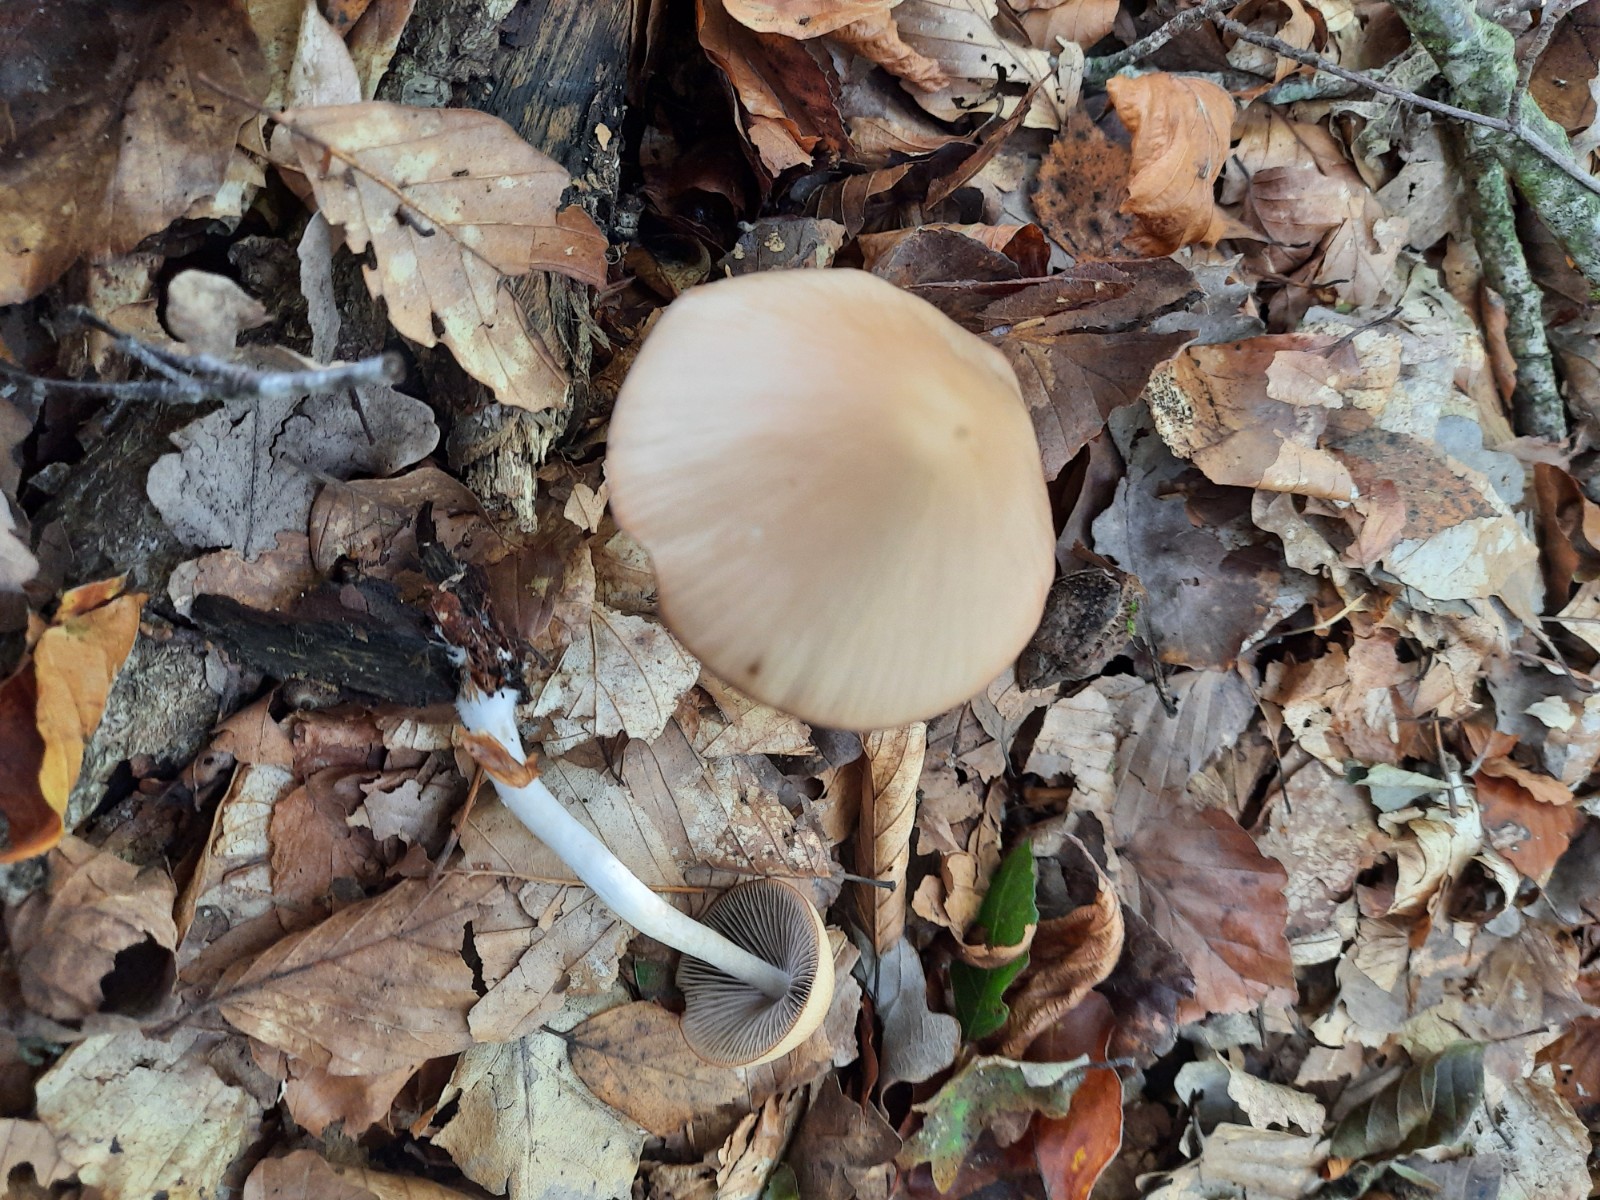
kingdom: Fungi
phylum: Basidiomycota
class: Agaricomycetes
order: Agaricales
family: Psathyrellaceae
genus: Psathyrella
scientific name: Psathyrella
